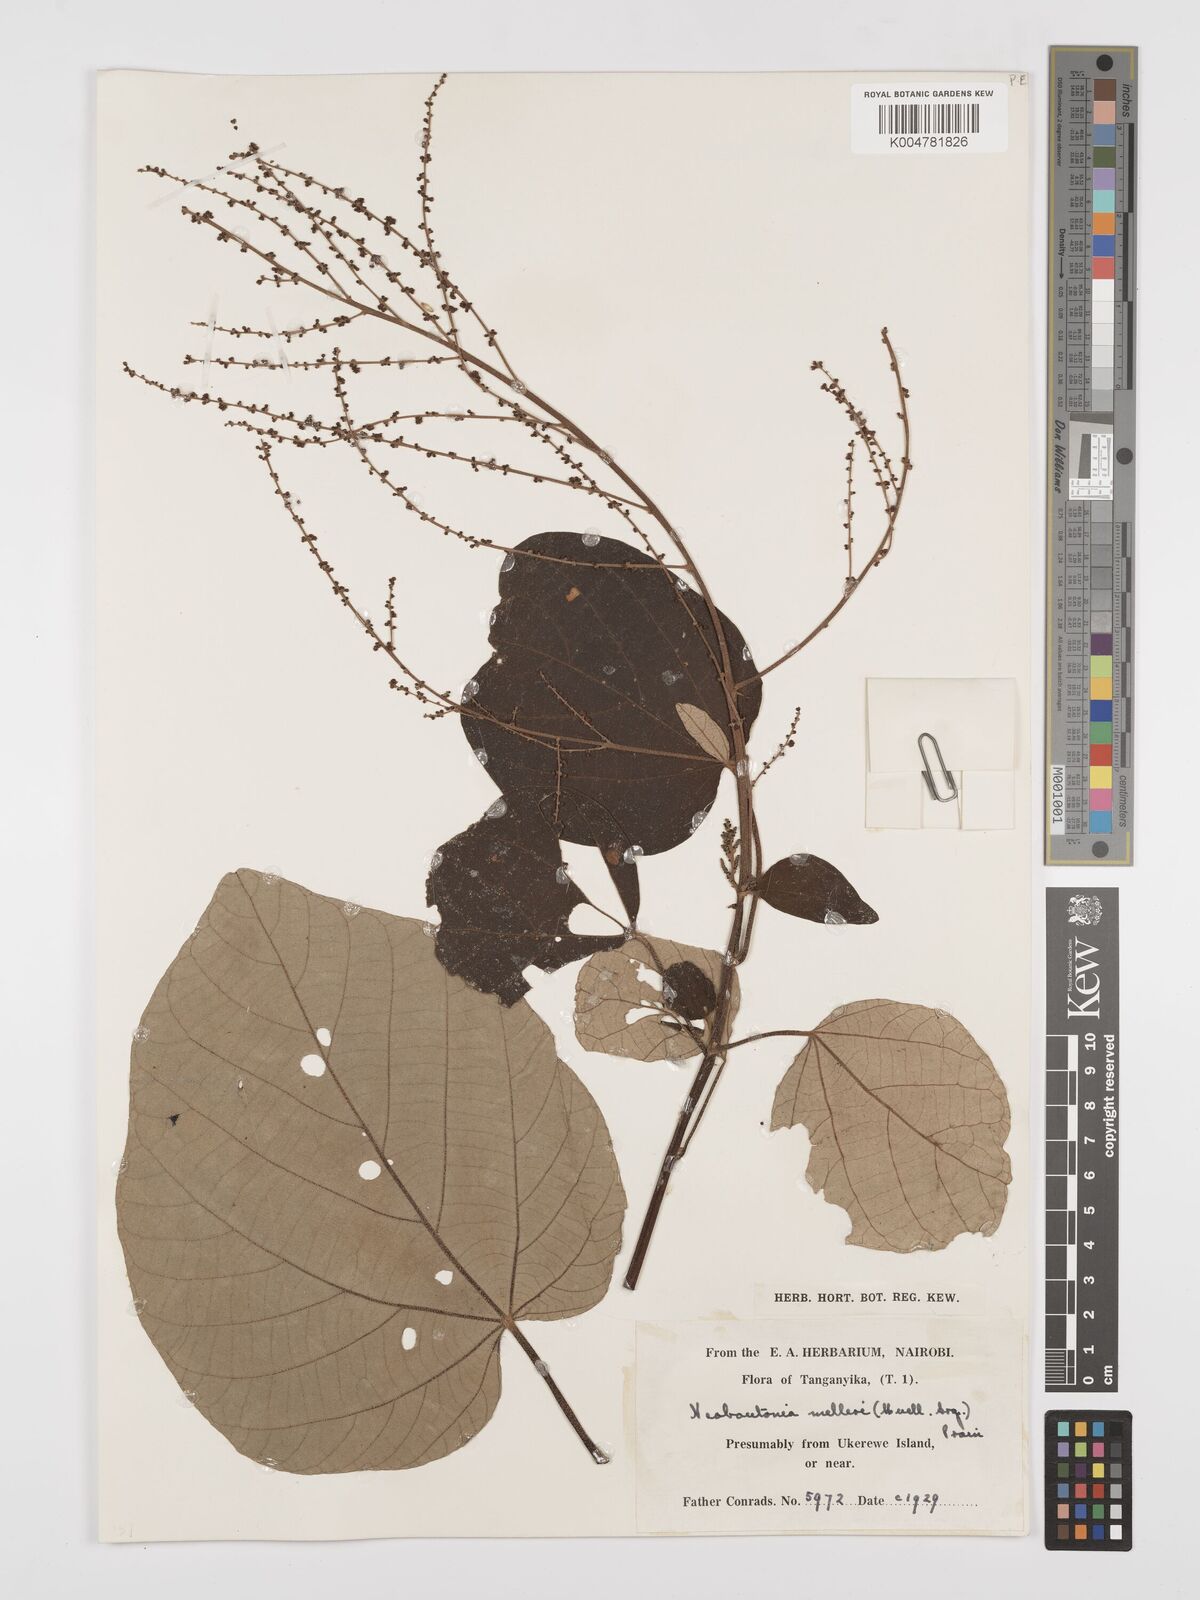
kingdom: Plantae
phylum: Tracheophyta
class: Magnoliopsida
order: Malpighiales
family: Euphorbiaceae
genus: Neoboutonia
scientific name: Neoboutonia melleri
